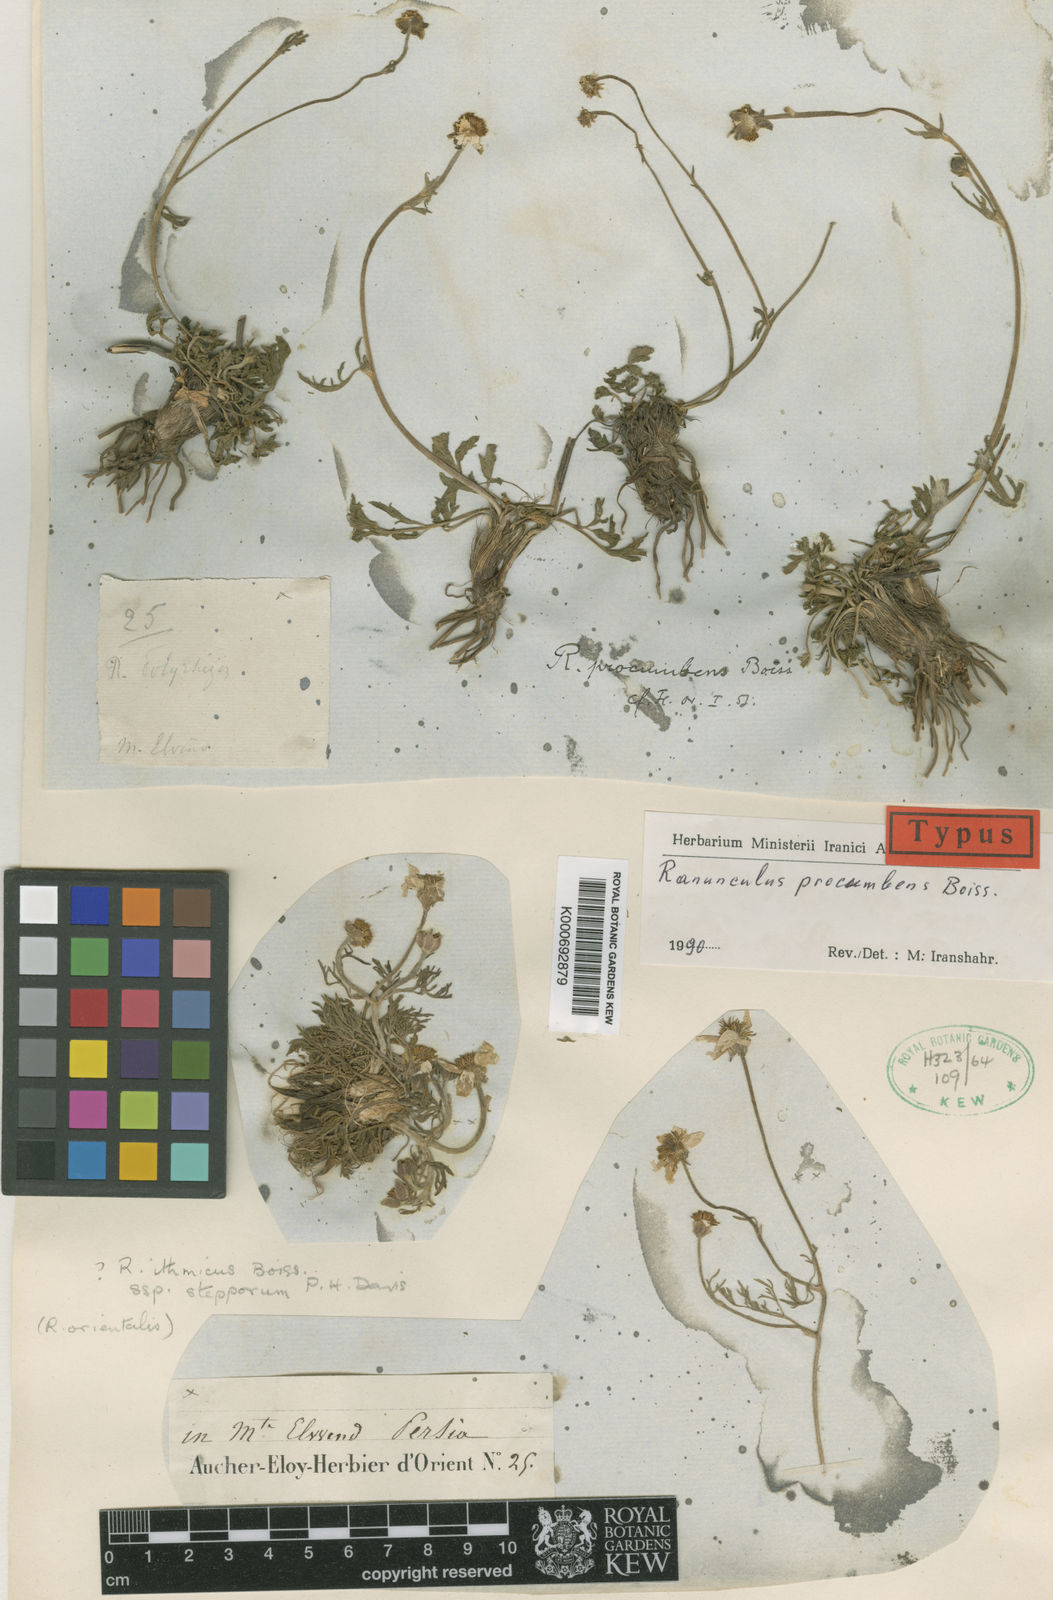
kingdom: Plantae
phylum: Tracheophyta
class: Magnoliopsida
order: Ranunculales
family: Ranunculaceae
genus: Ranunculus
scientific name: Ranunculus procumbens
